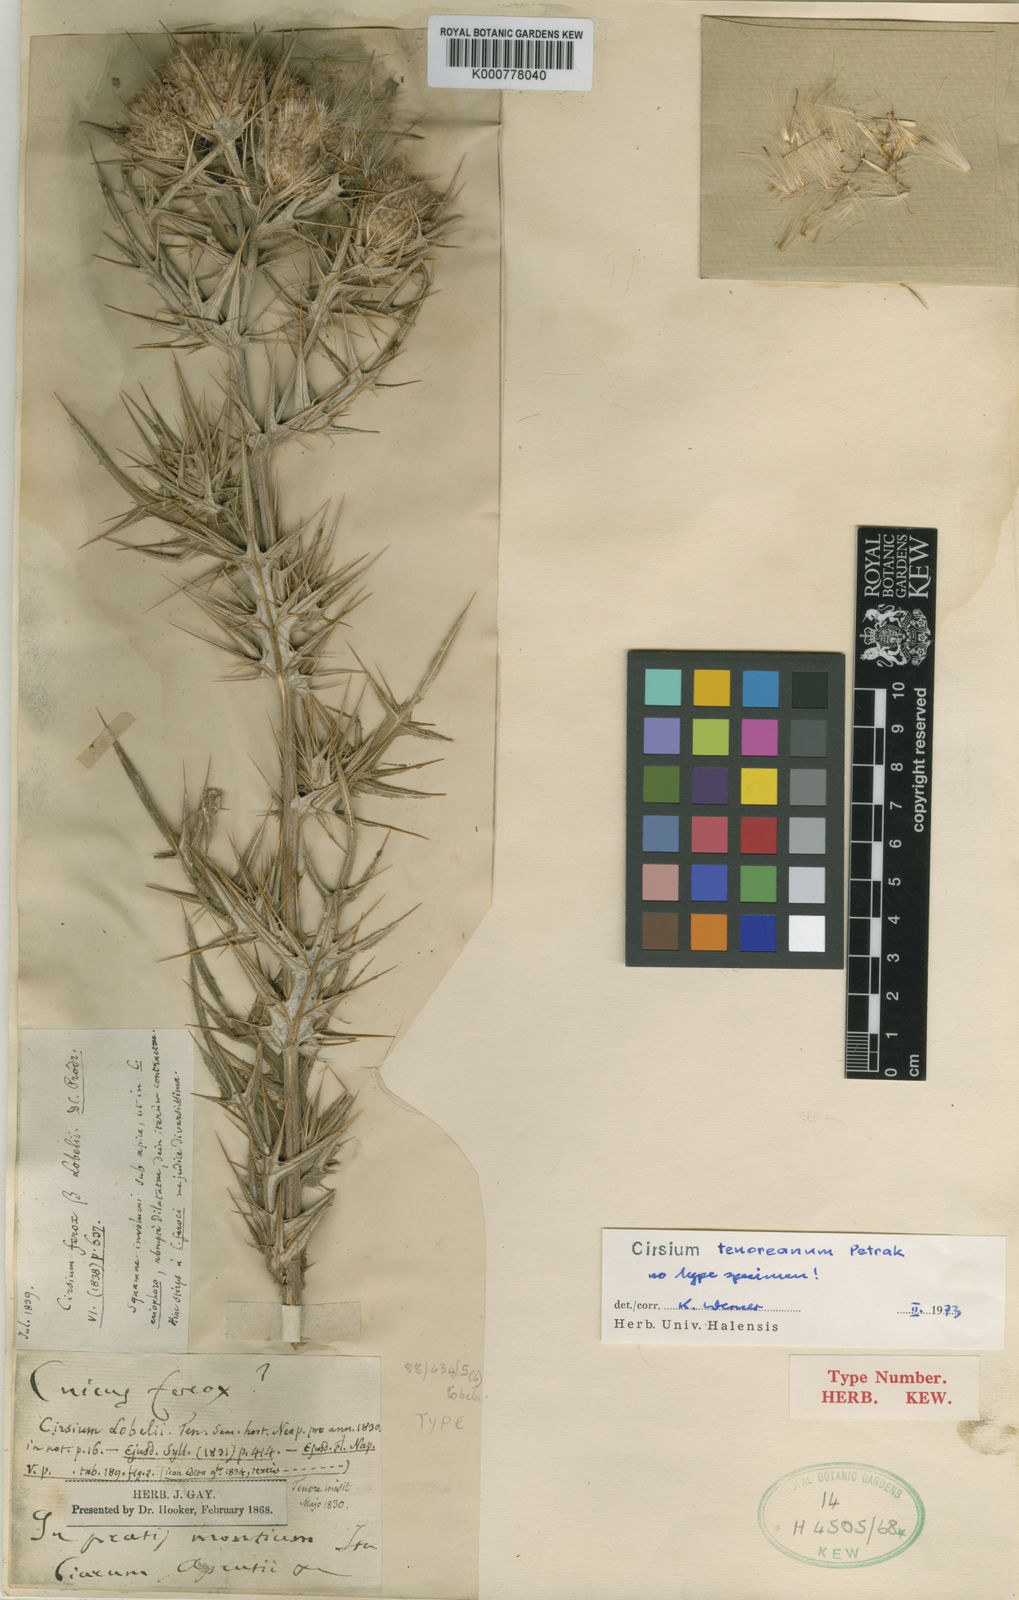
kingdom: Plantae
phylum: Tracheophyta
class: Magnoliopsida
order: Asterales
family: Asteraceae
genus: Lophiolepis
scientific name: Lophiolepis tenoreana
